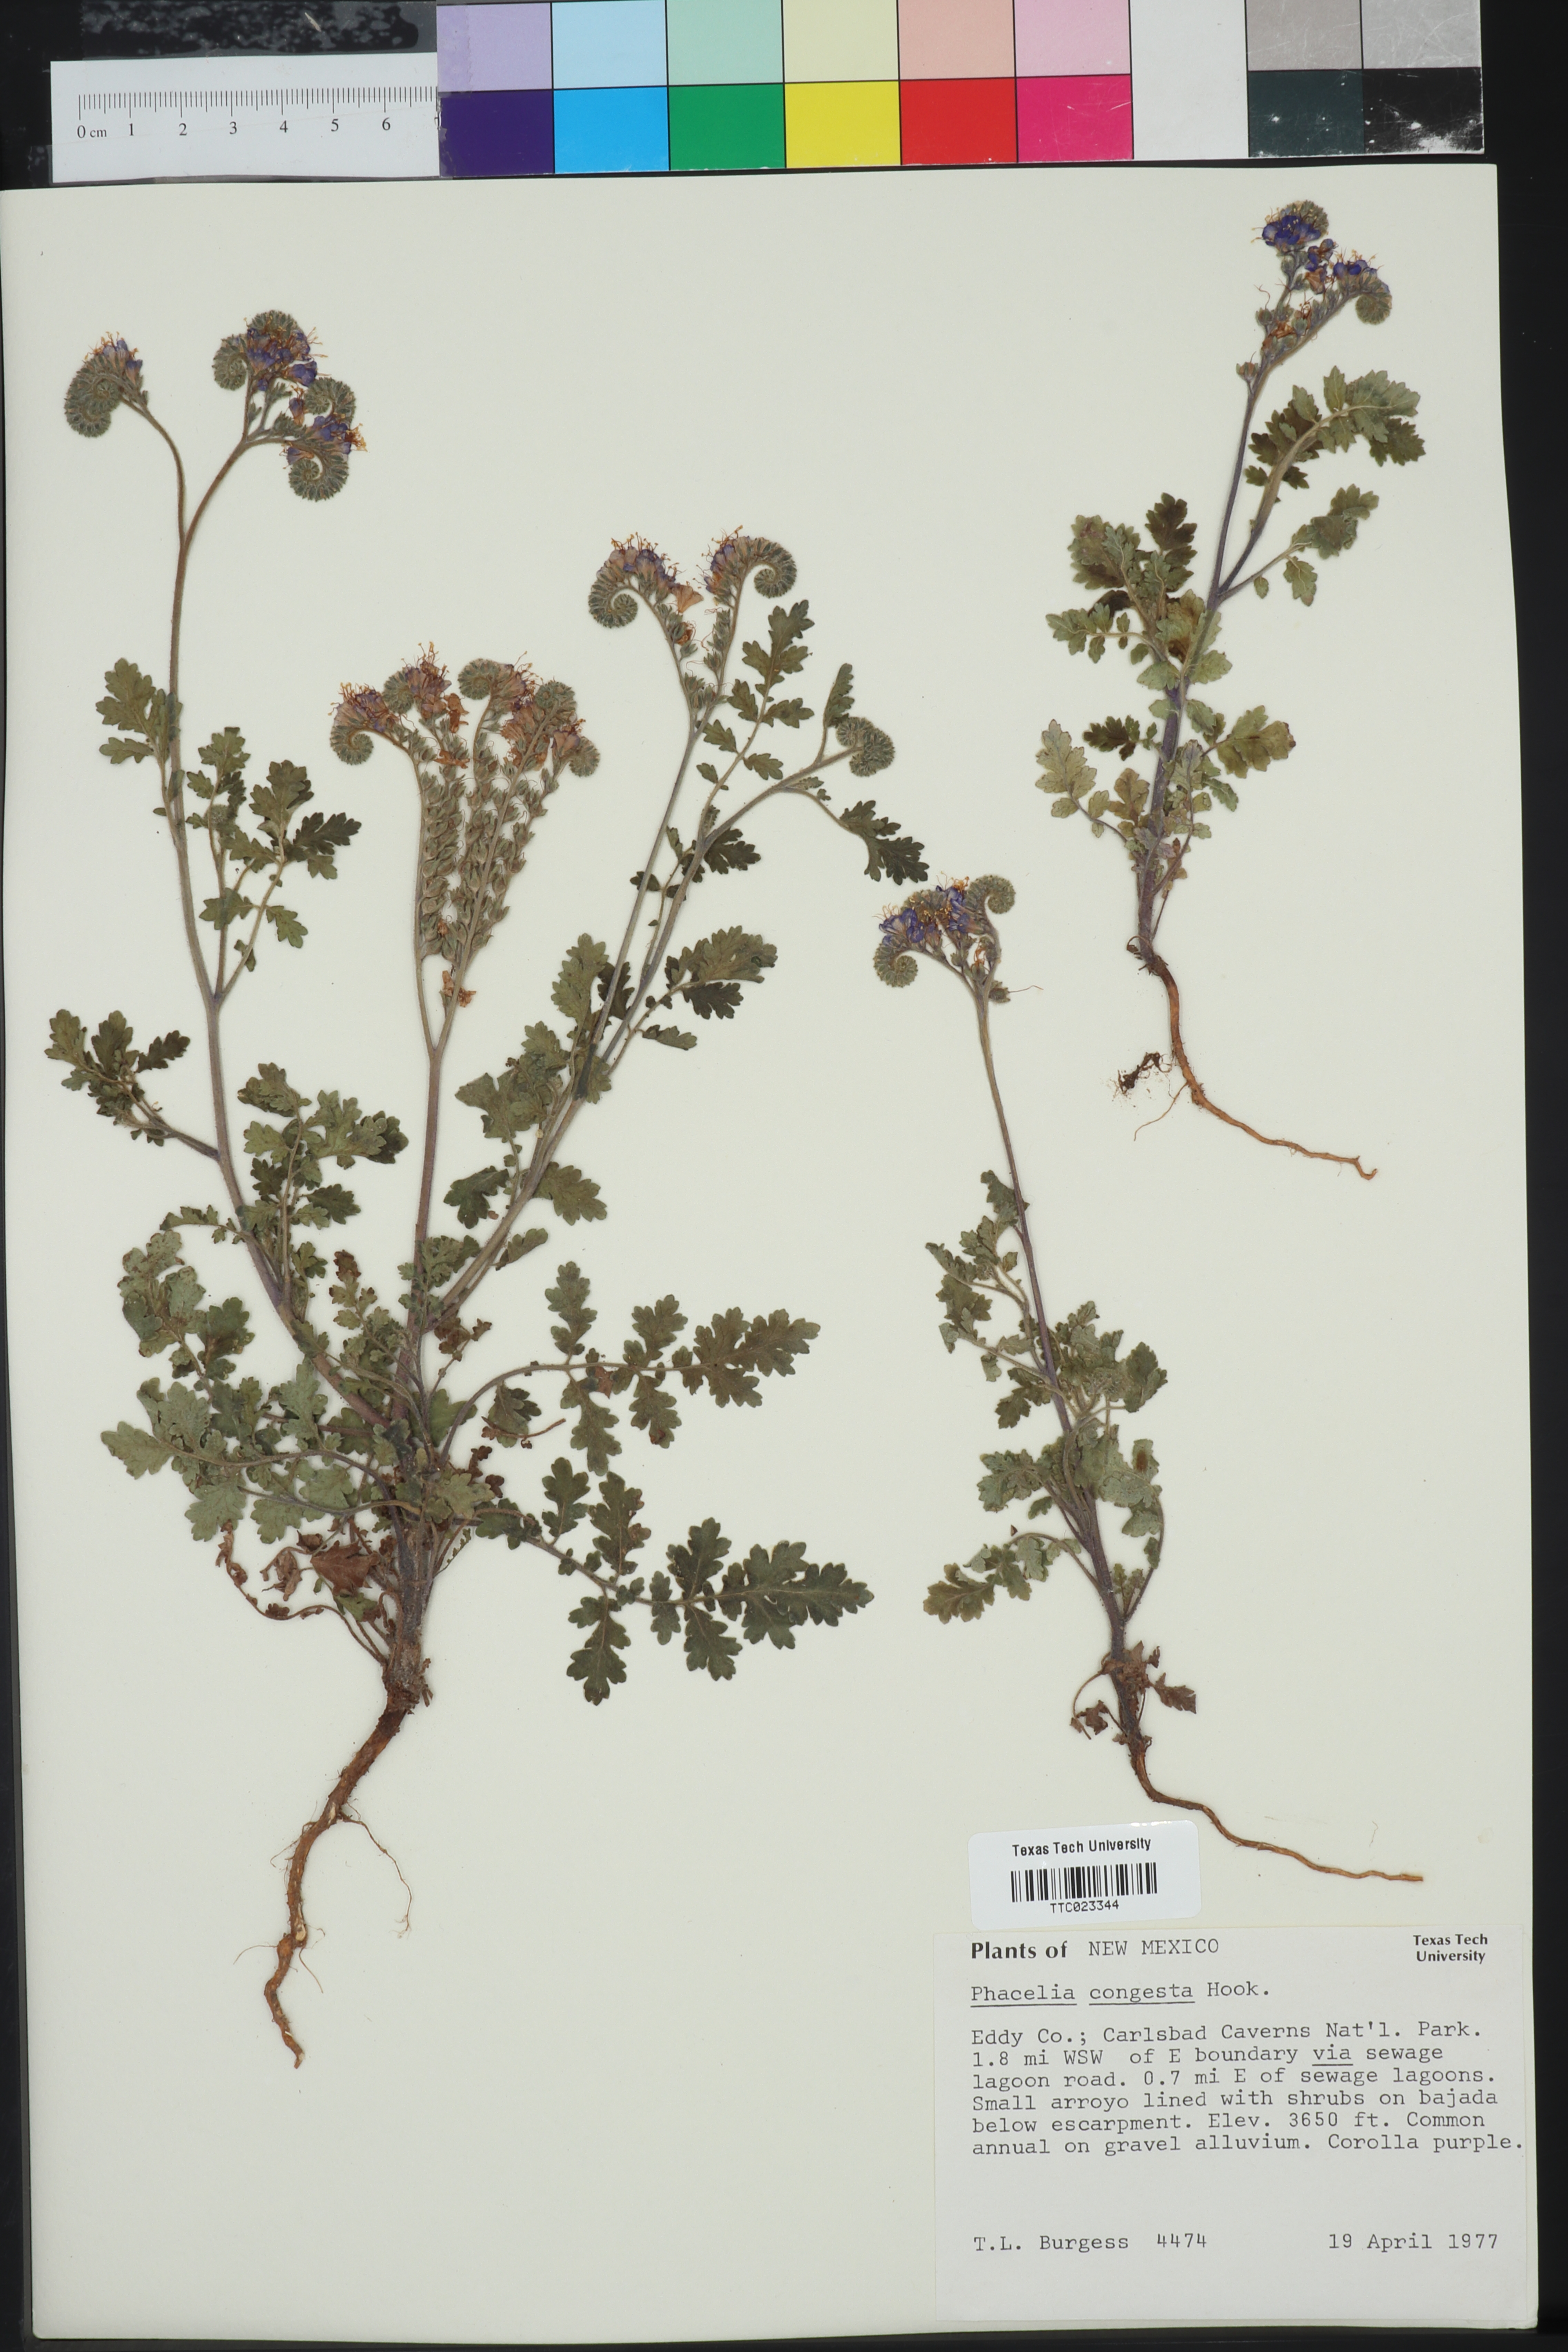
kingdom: Plantae
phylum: Tracheophyta
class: Magnoliopsida
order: Boraginales
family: Hydrophyllaceae
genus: Phacelia
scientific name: Phacelia congesta
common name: Blue curls
